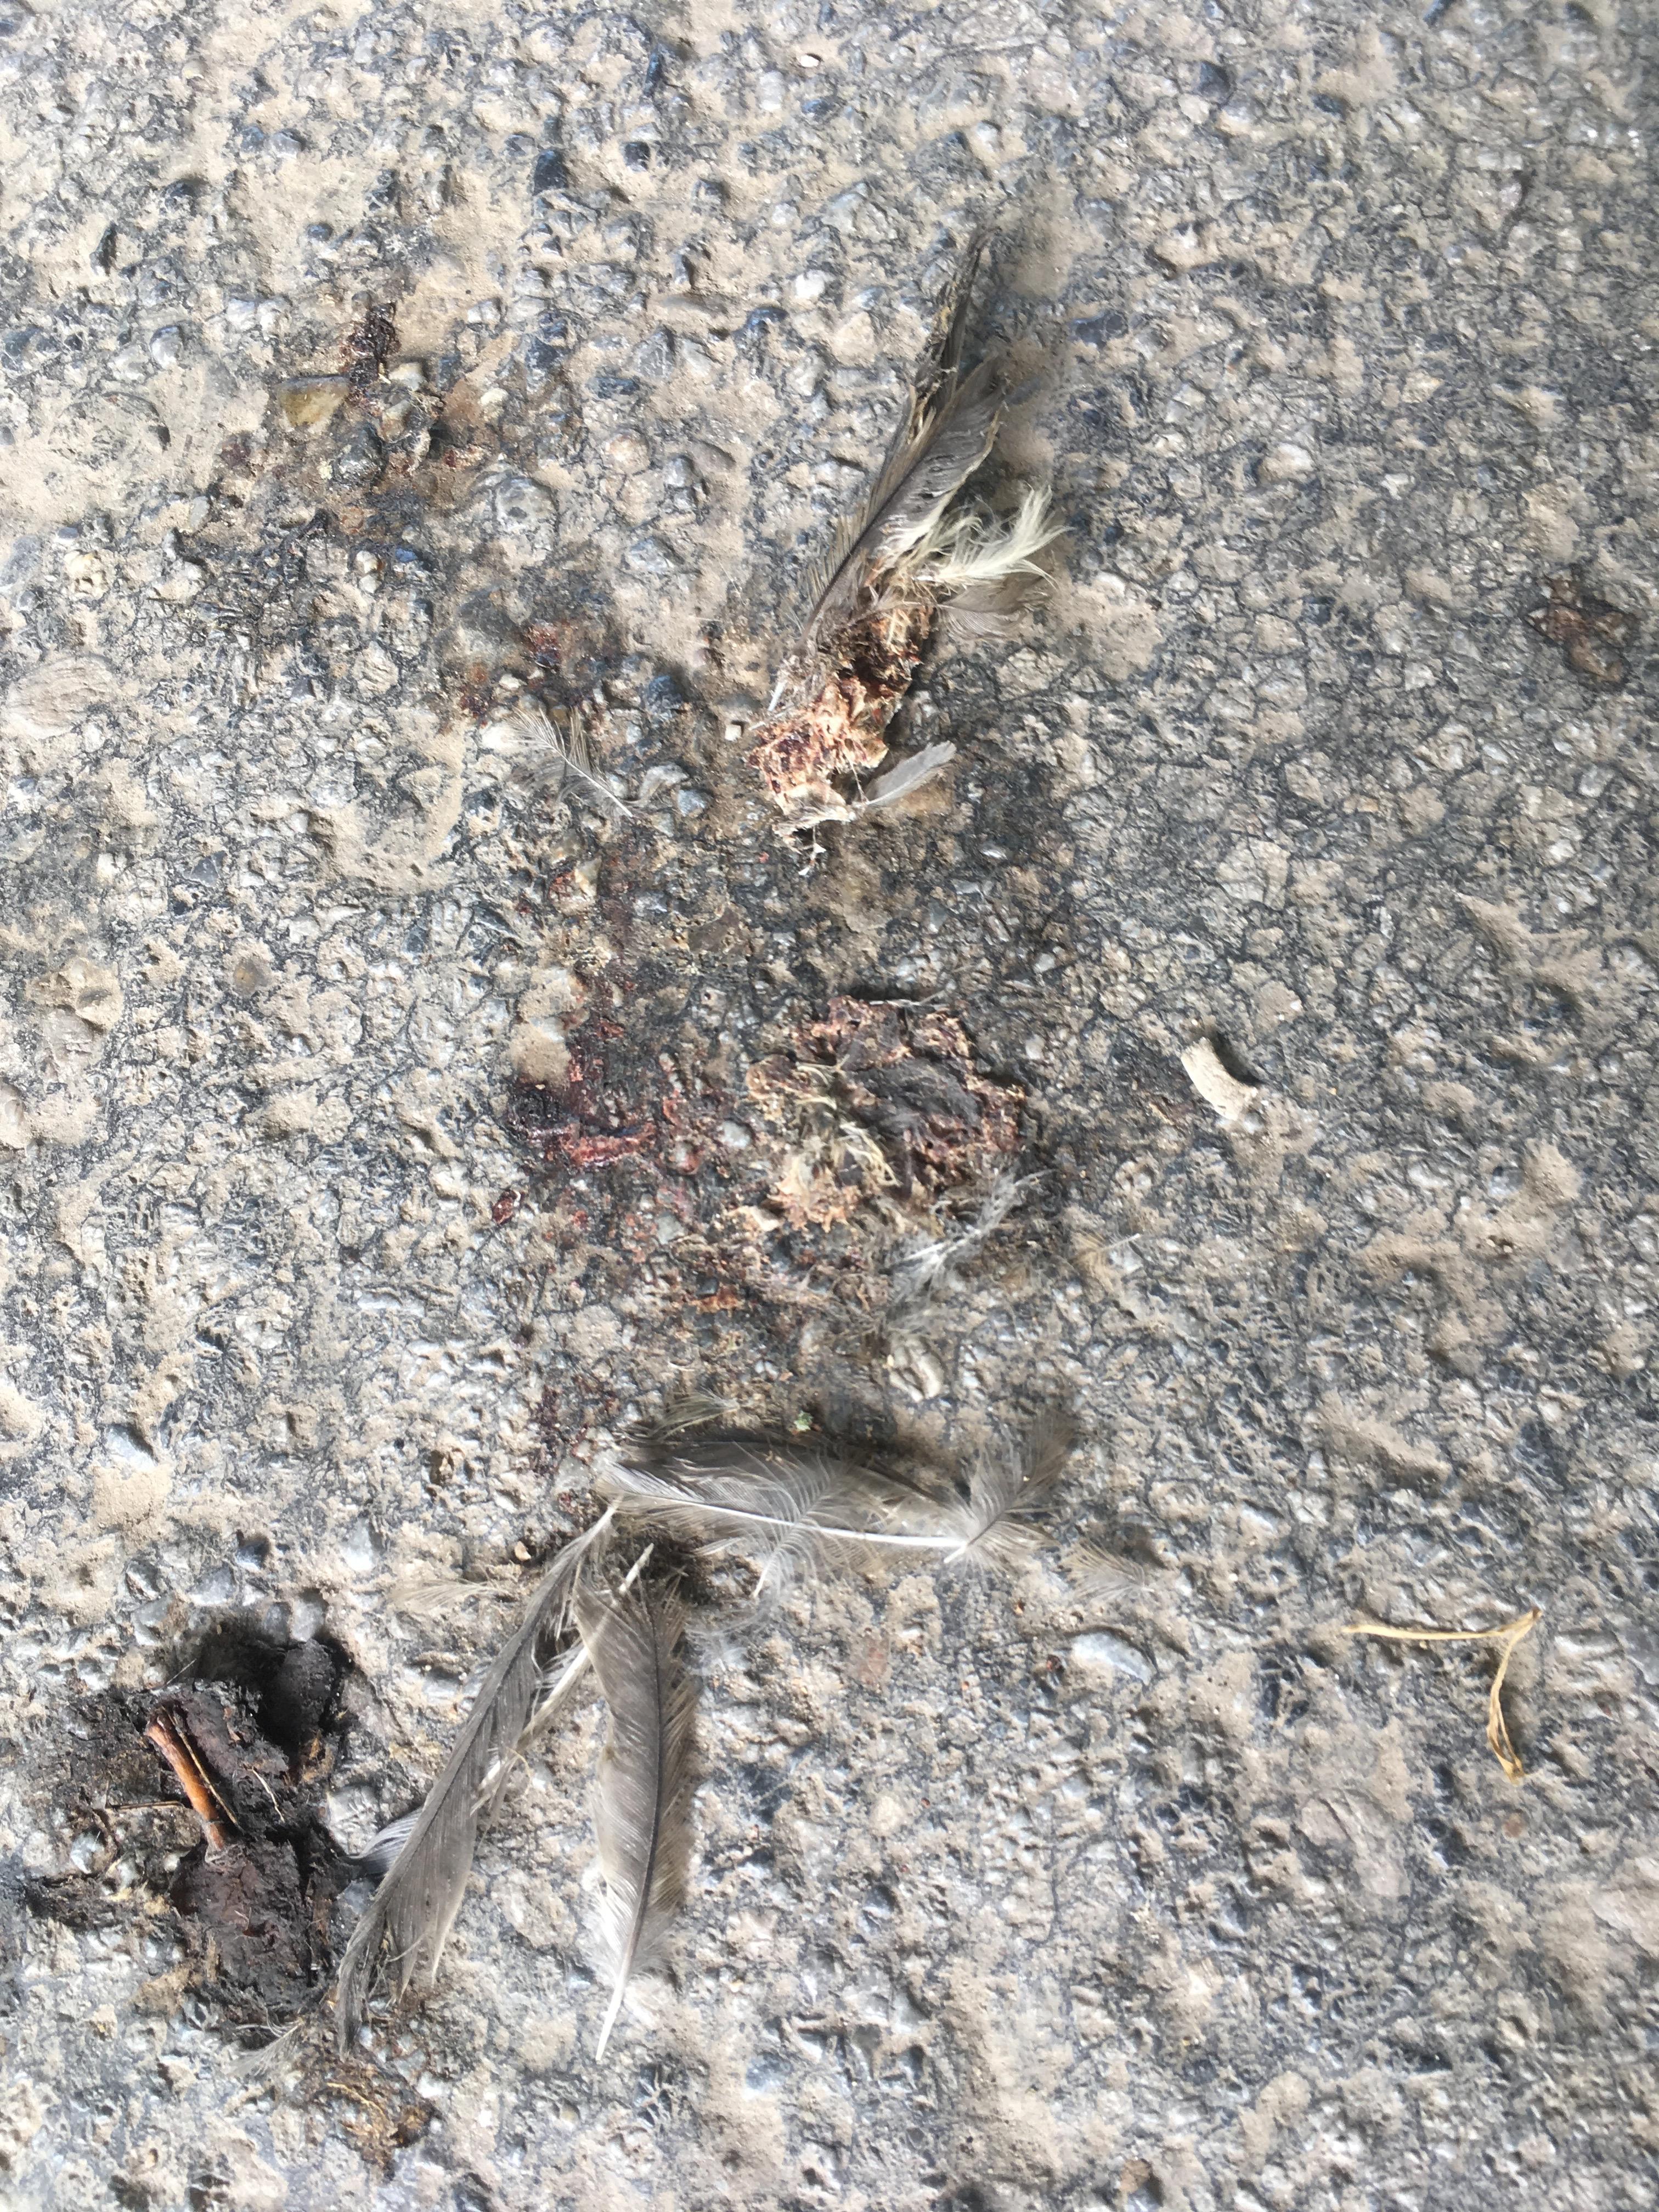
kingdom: Animalia
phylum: Chordata
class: Aves
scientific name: Aves
